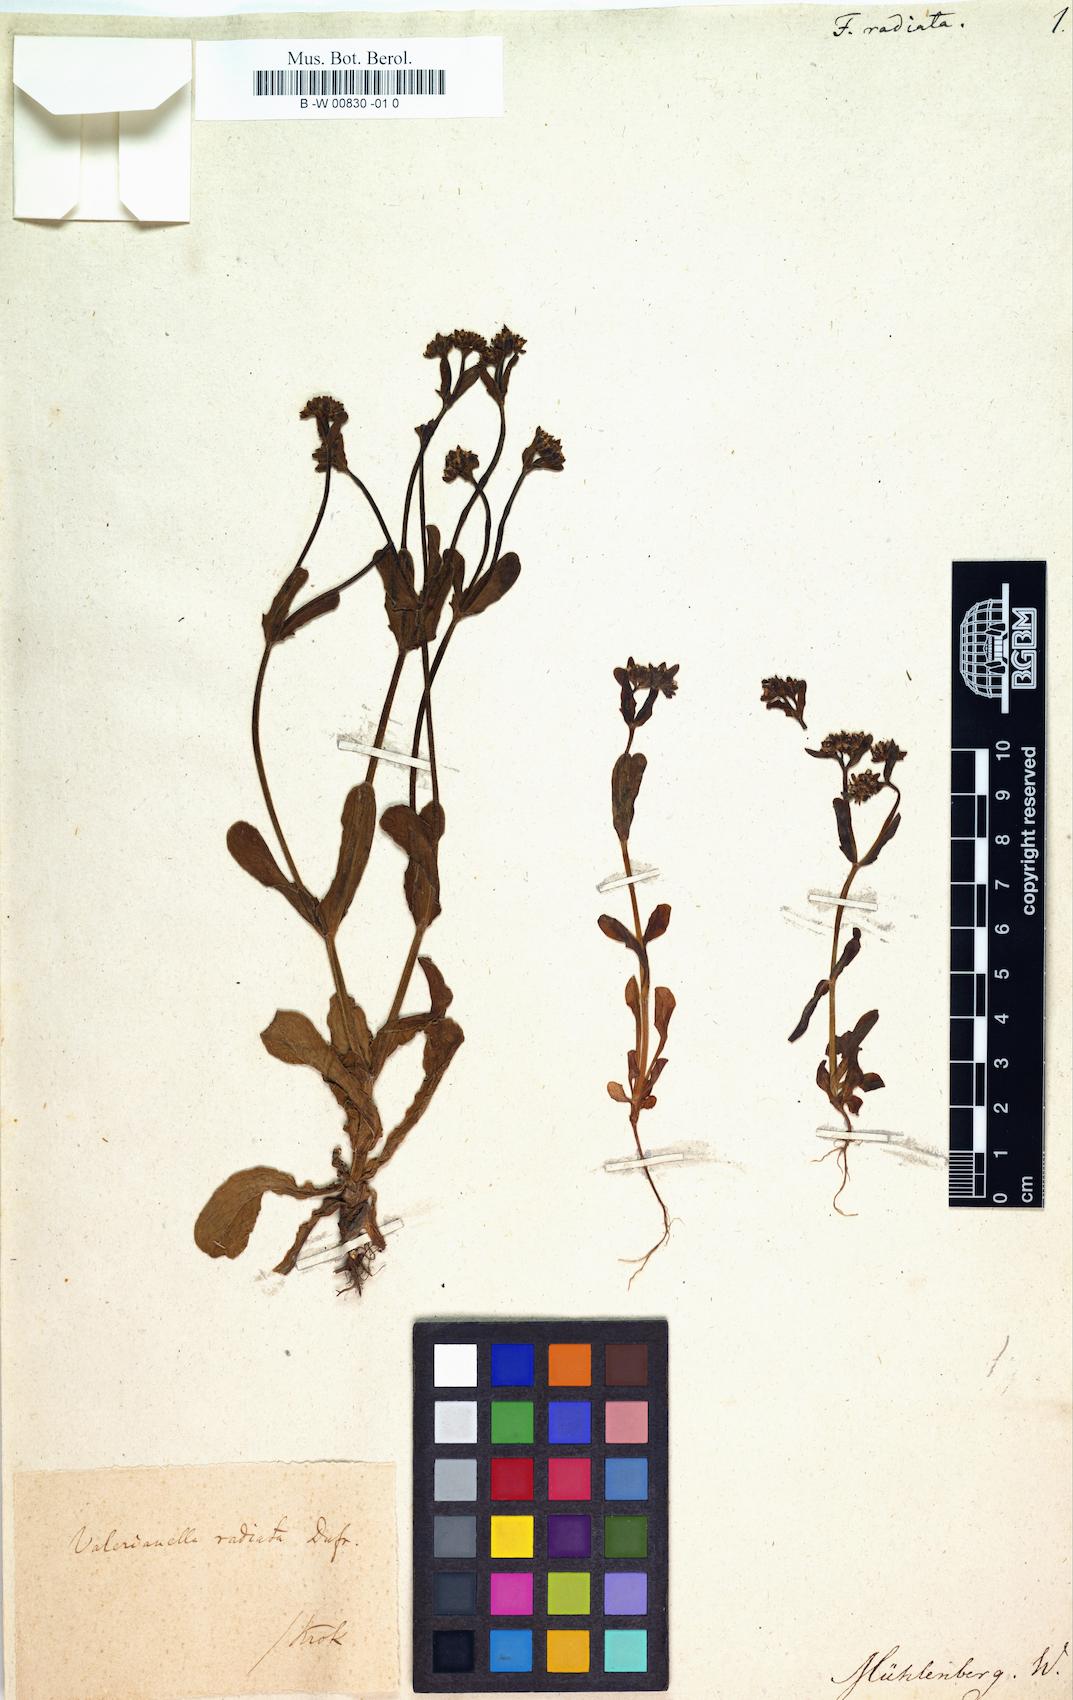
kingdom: Plantae
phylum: Tracheophyta
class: Magnoliopsida
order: Dipsacales
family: Caprifoliaceae
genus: Valerianella
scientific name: Valerianella radiata
